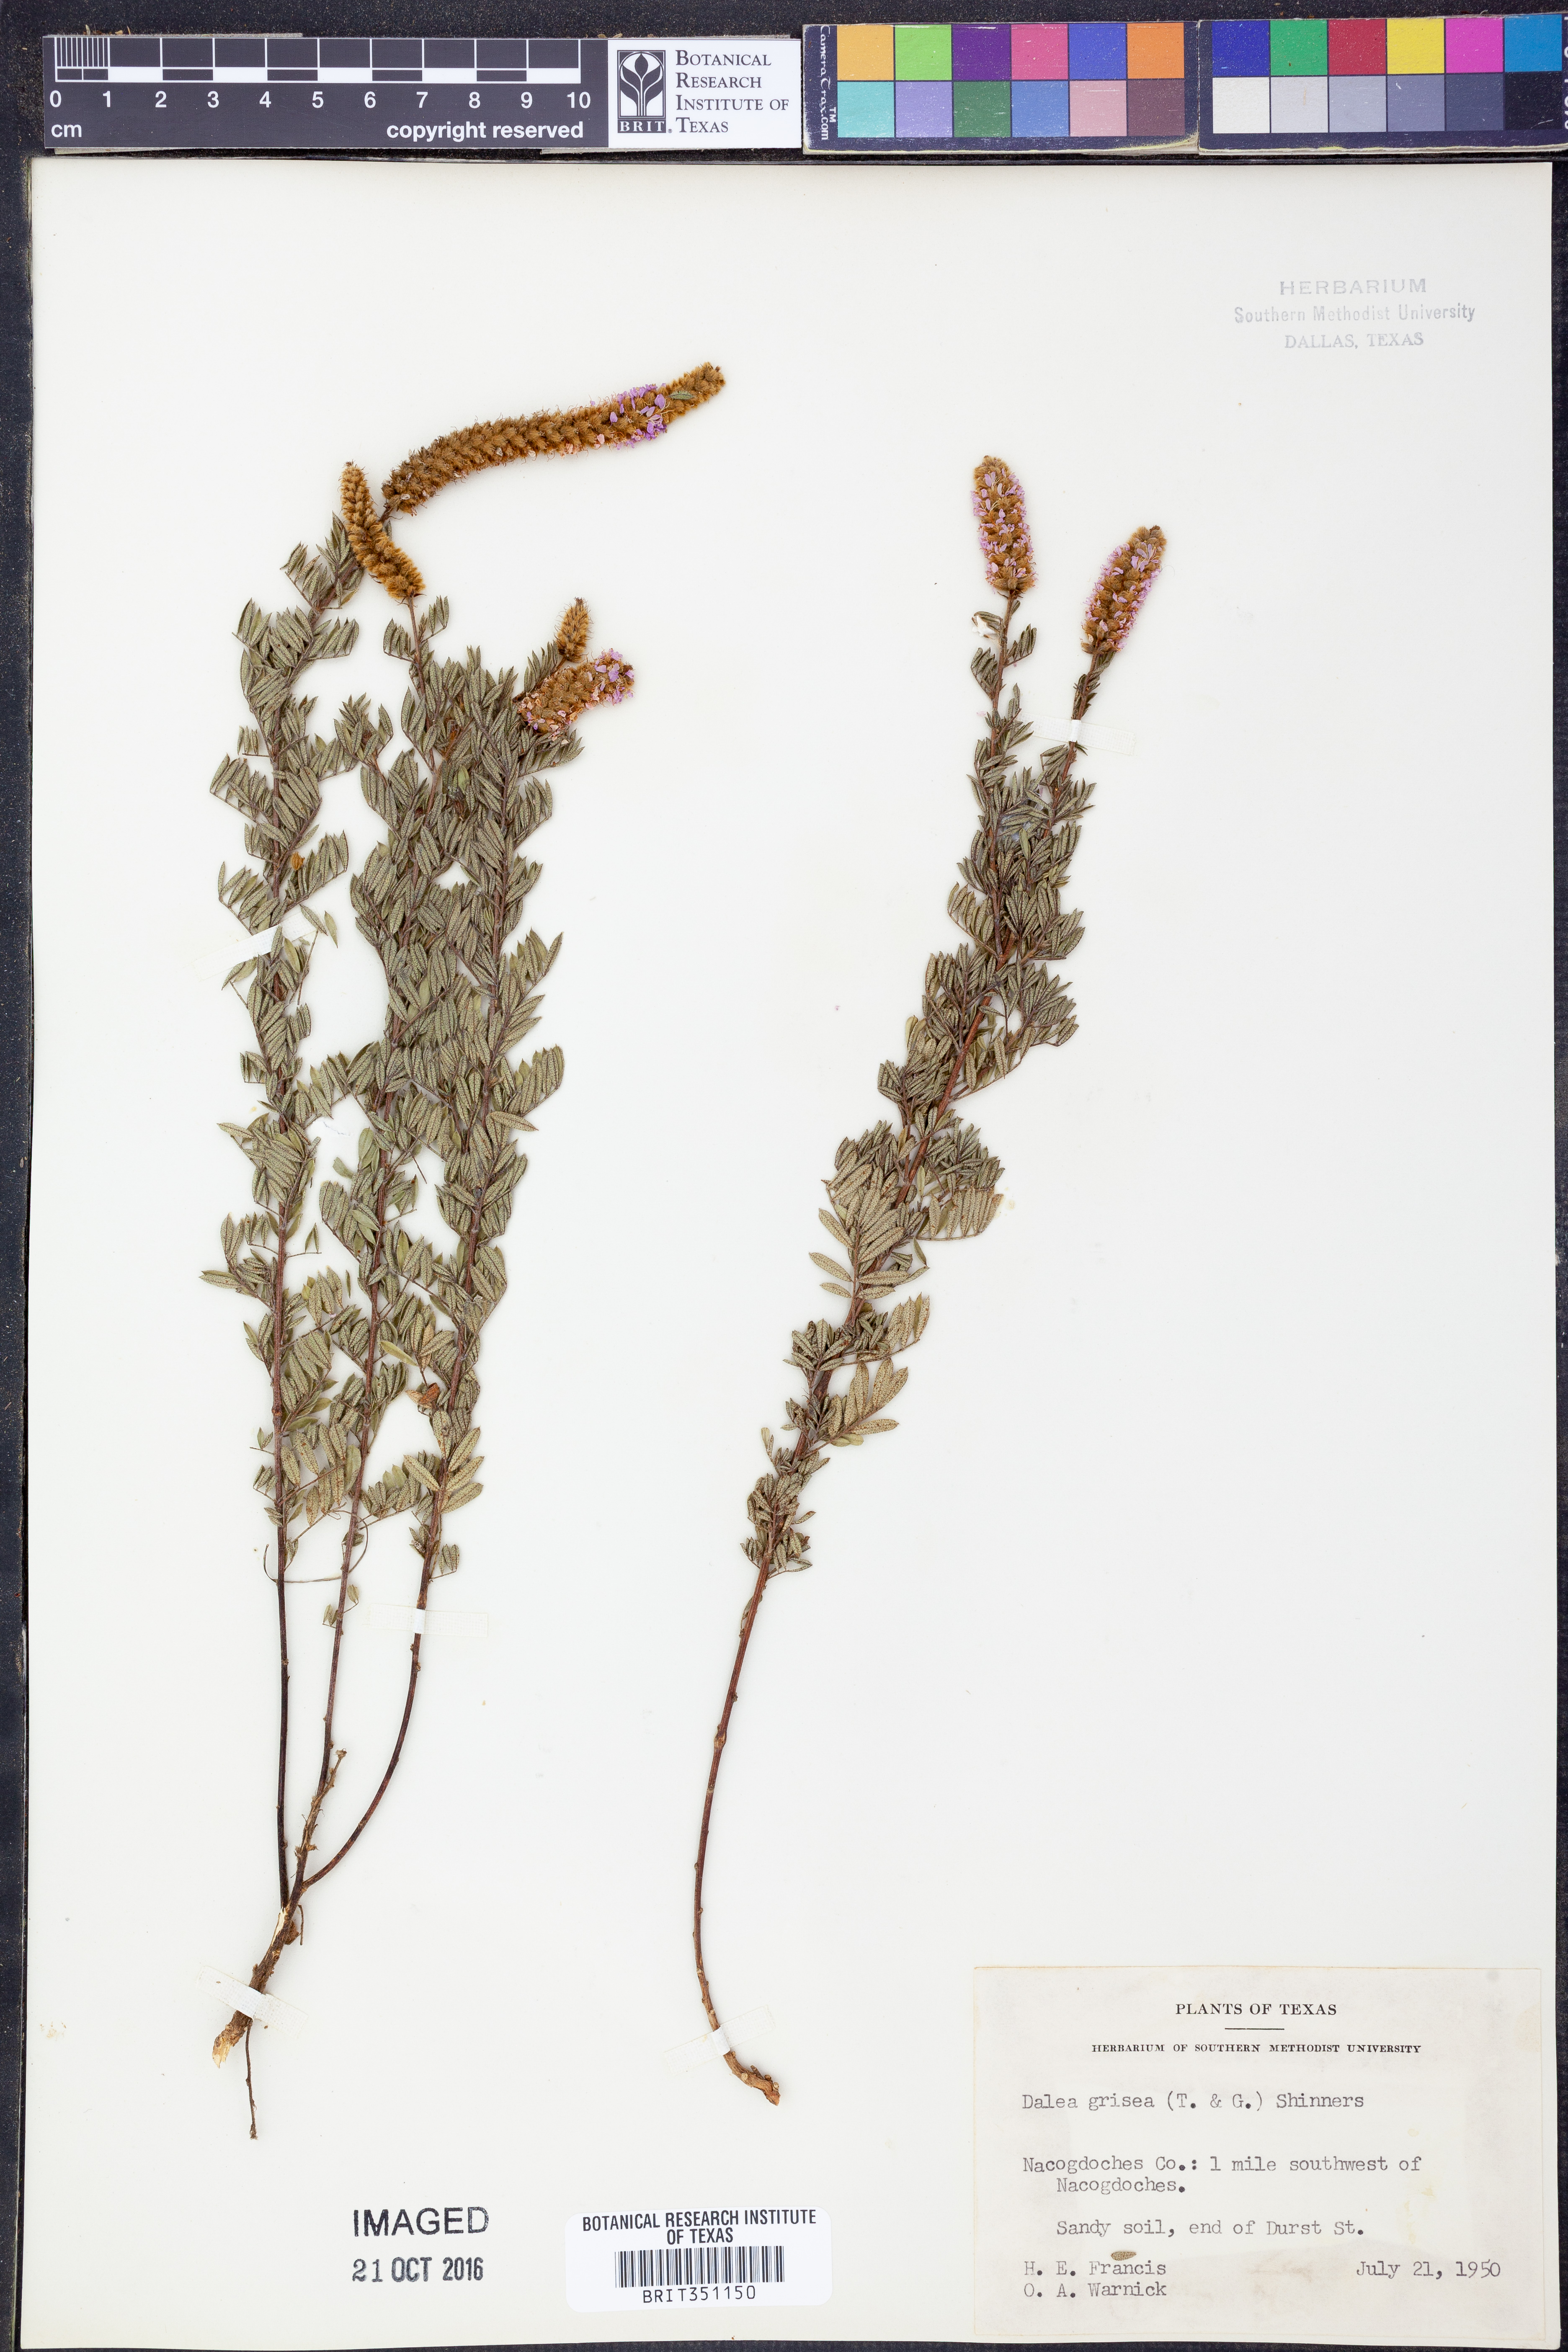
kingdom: Plantae
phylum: Tracheophyta
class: Magnoliopsida
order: Fabales
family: Fabaceae
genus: Dalea
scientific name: Dalea villosa
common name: Silky prairie-clover
